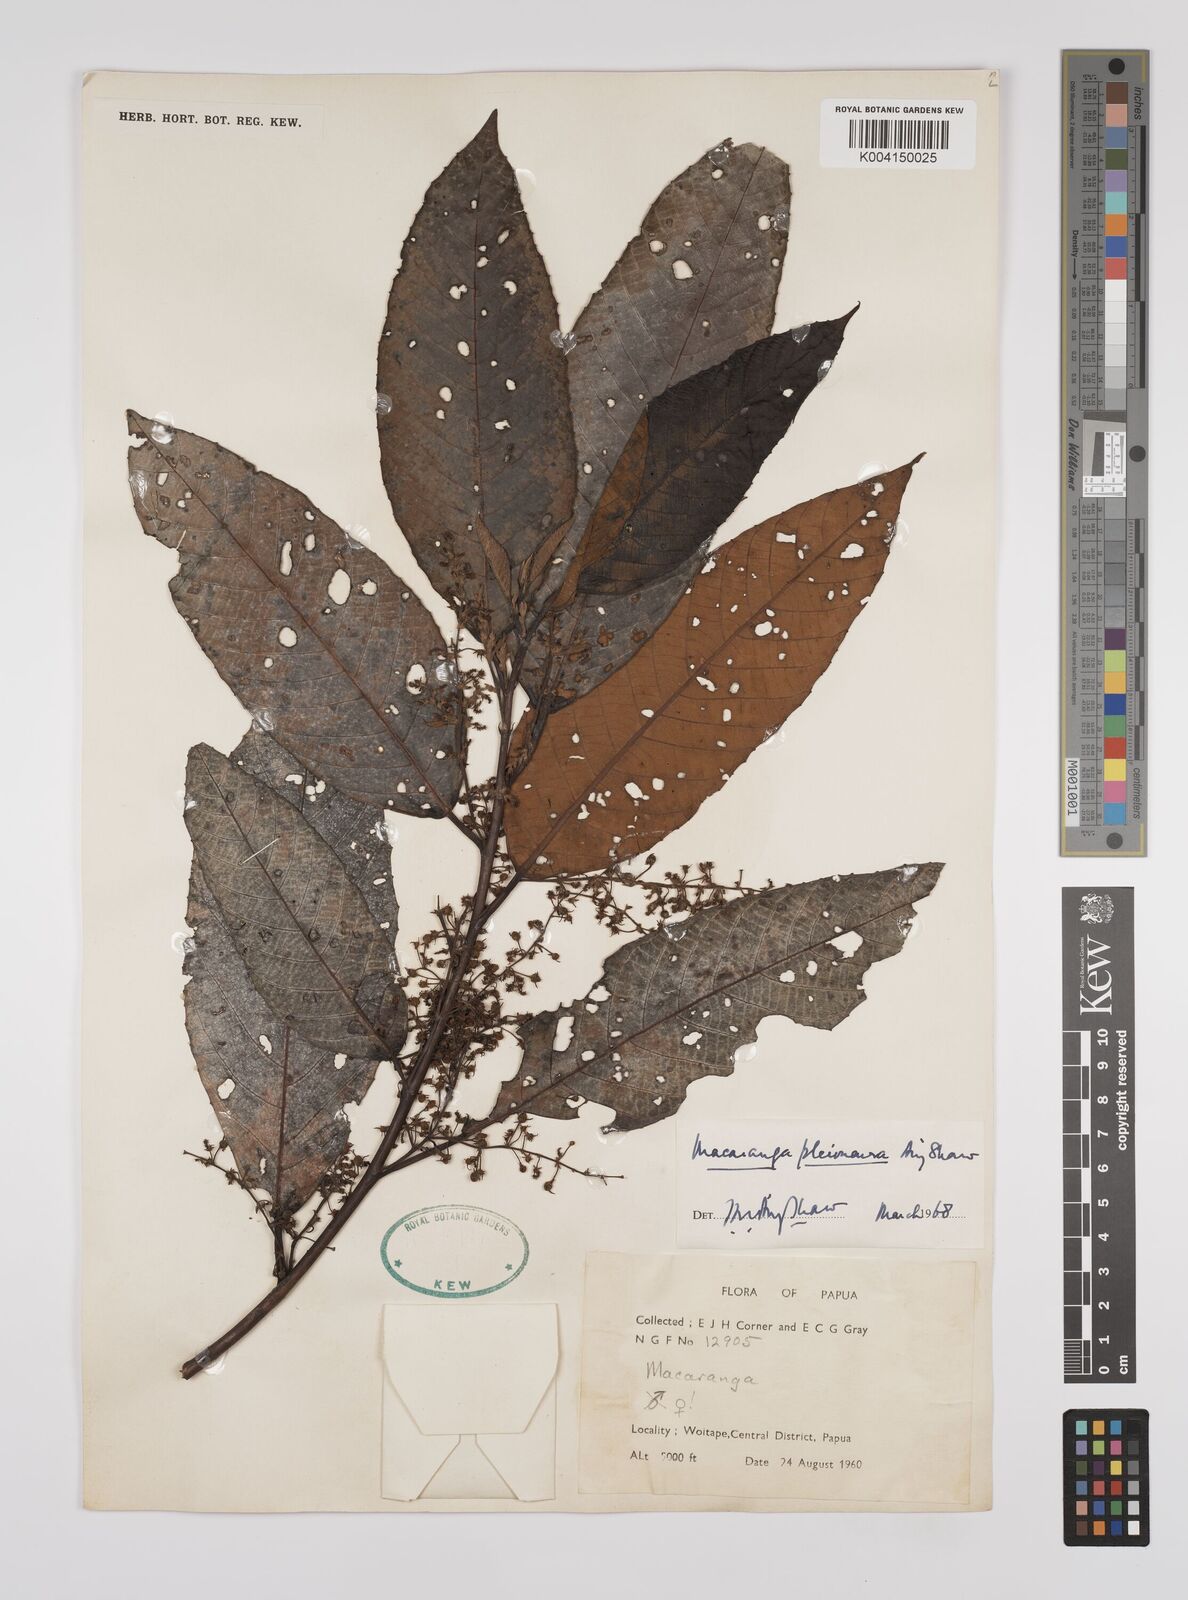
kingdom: Plantae
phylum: Tracheophyta
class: Magnoliopsida
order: Malpighiales
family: Euphorbiaceae
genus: Macaranga
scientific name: Macaranga pleioneura
